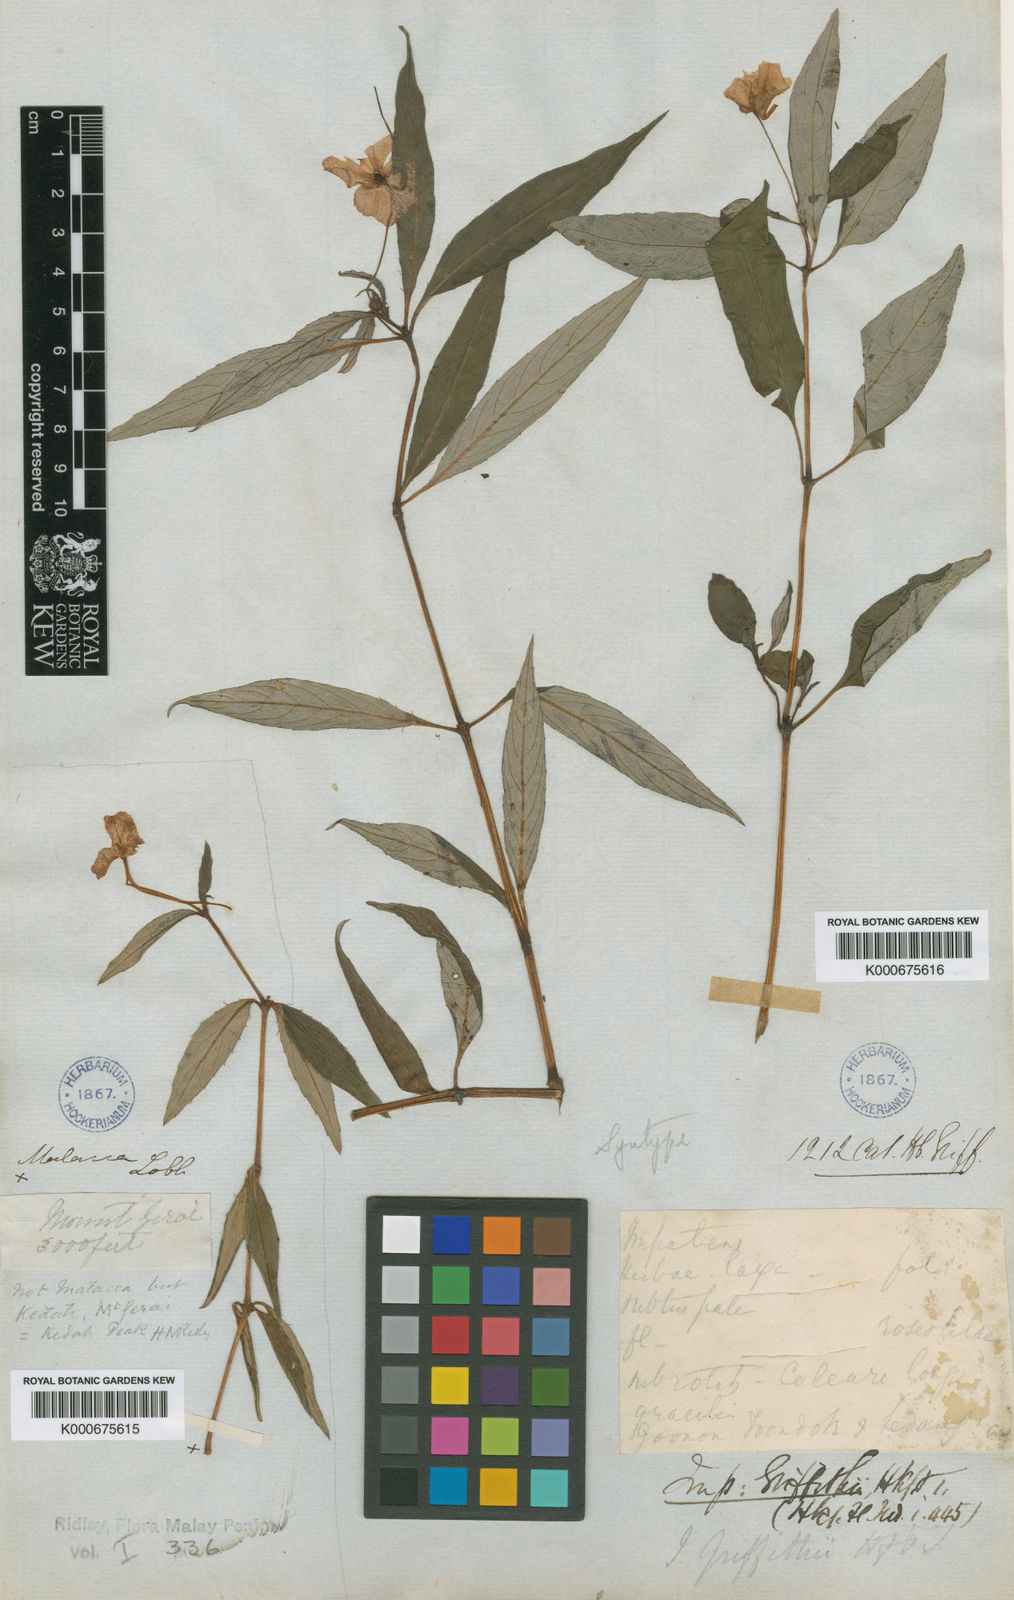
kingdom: Plantae
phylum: Tracheophyta
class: Magnoliopsida
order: Ericales
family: Balsaminaceae
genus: Impatiens
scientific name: Impatiens griffithii
